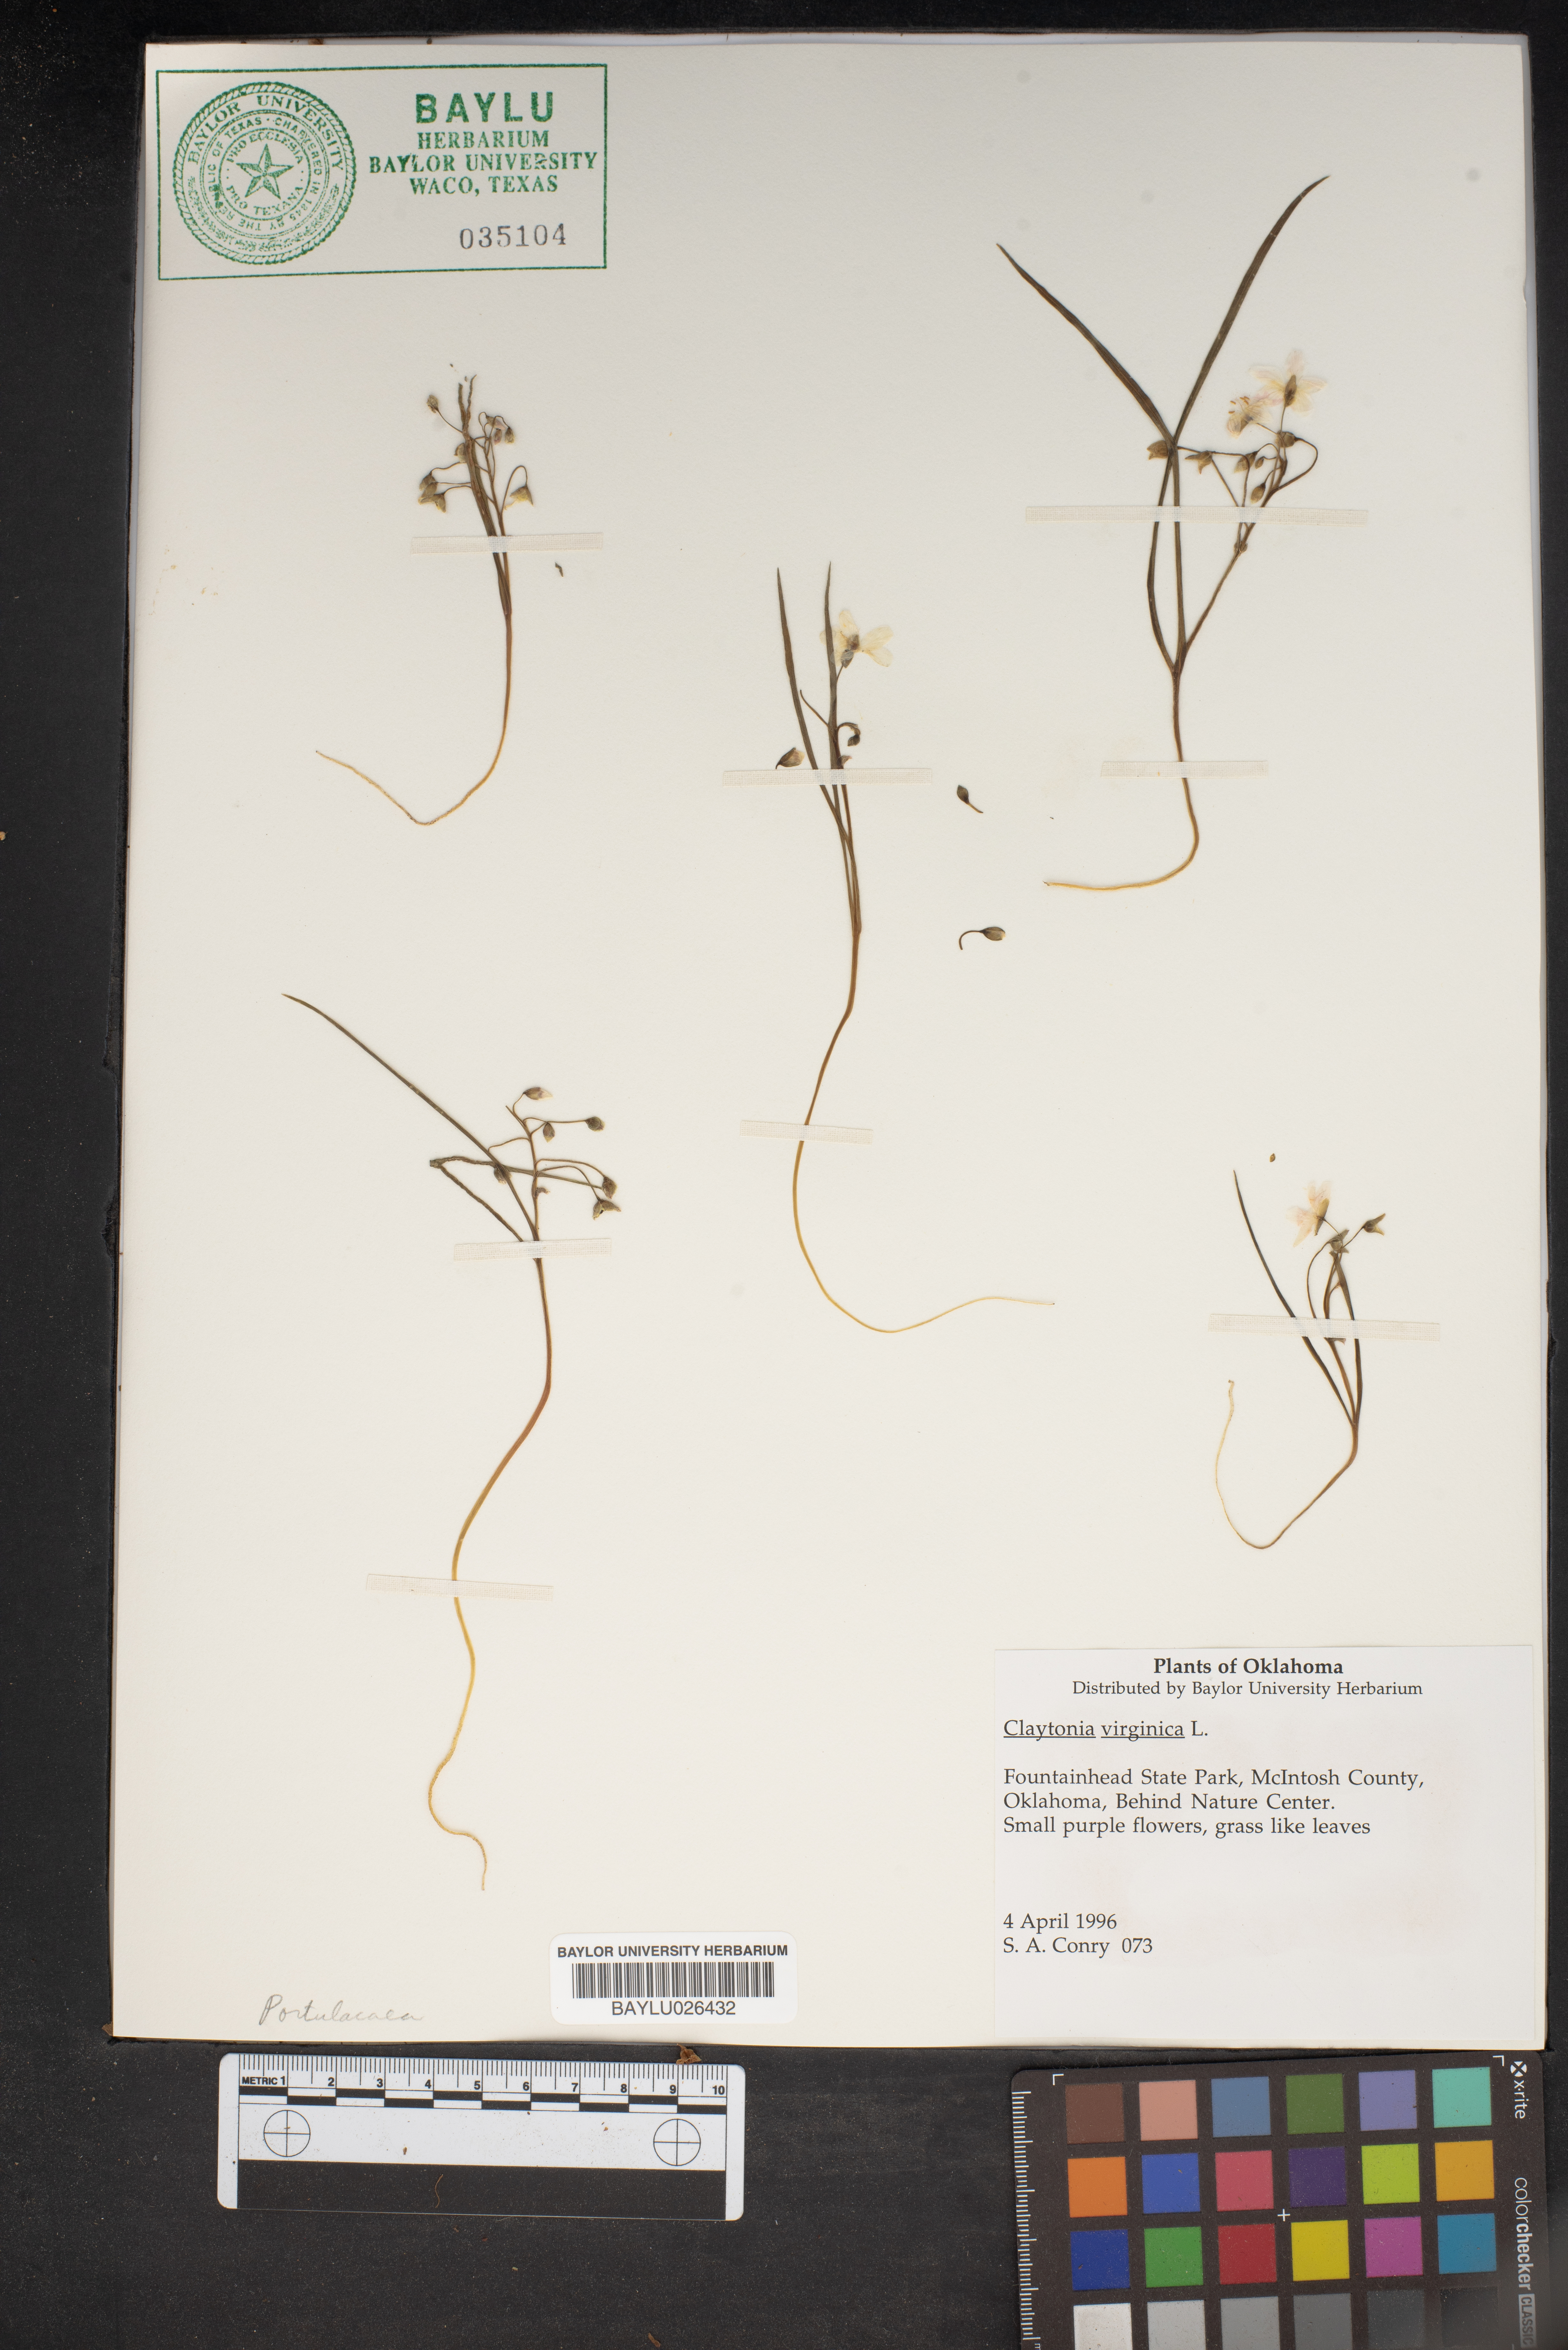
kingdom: Plantae
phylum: Tracheophyta
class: Magnoliopsida
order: Caryophyllales
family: Montiaceae
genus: Claytonia
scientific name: Claytonia virginica
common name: Virginia springbeauty
